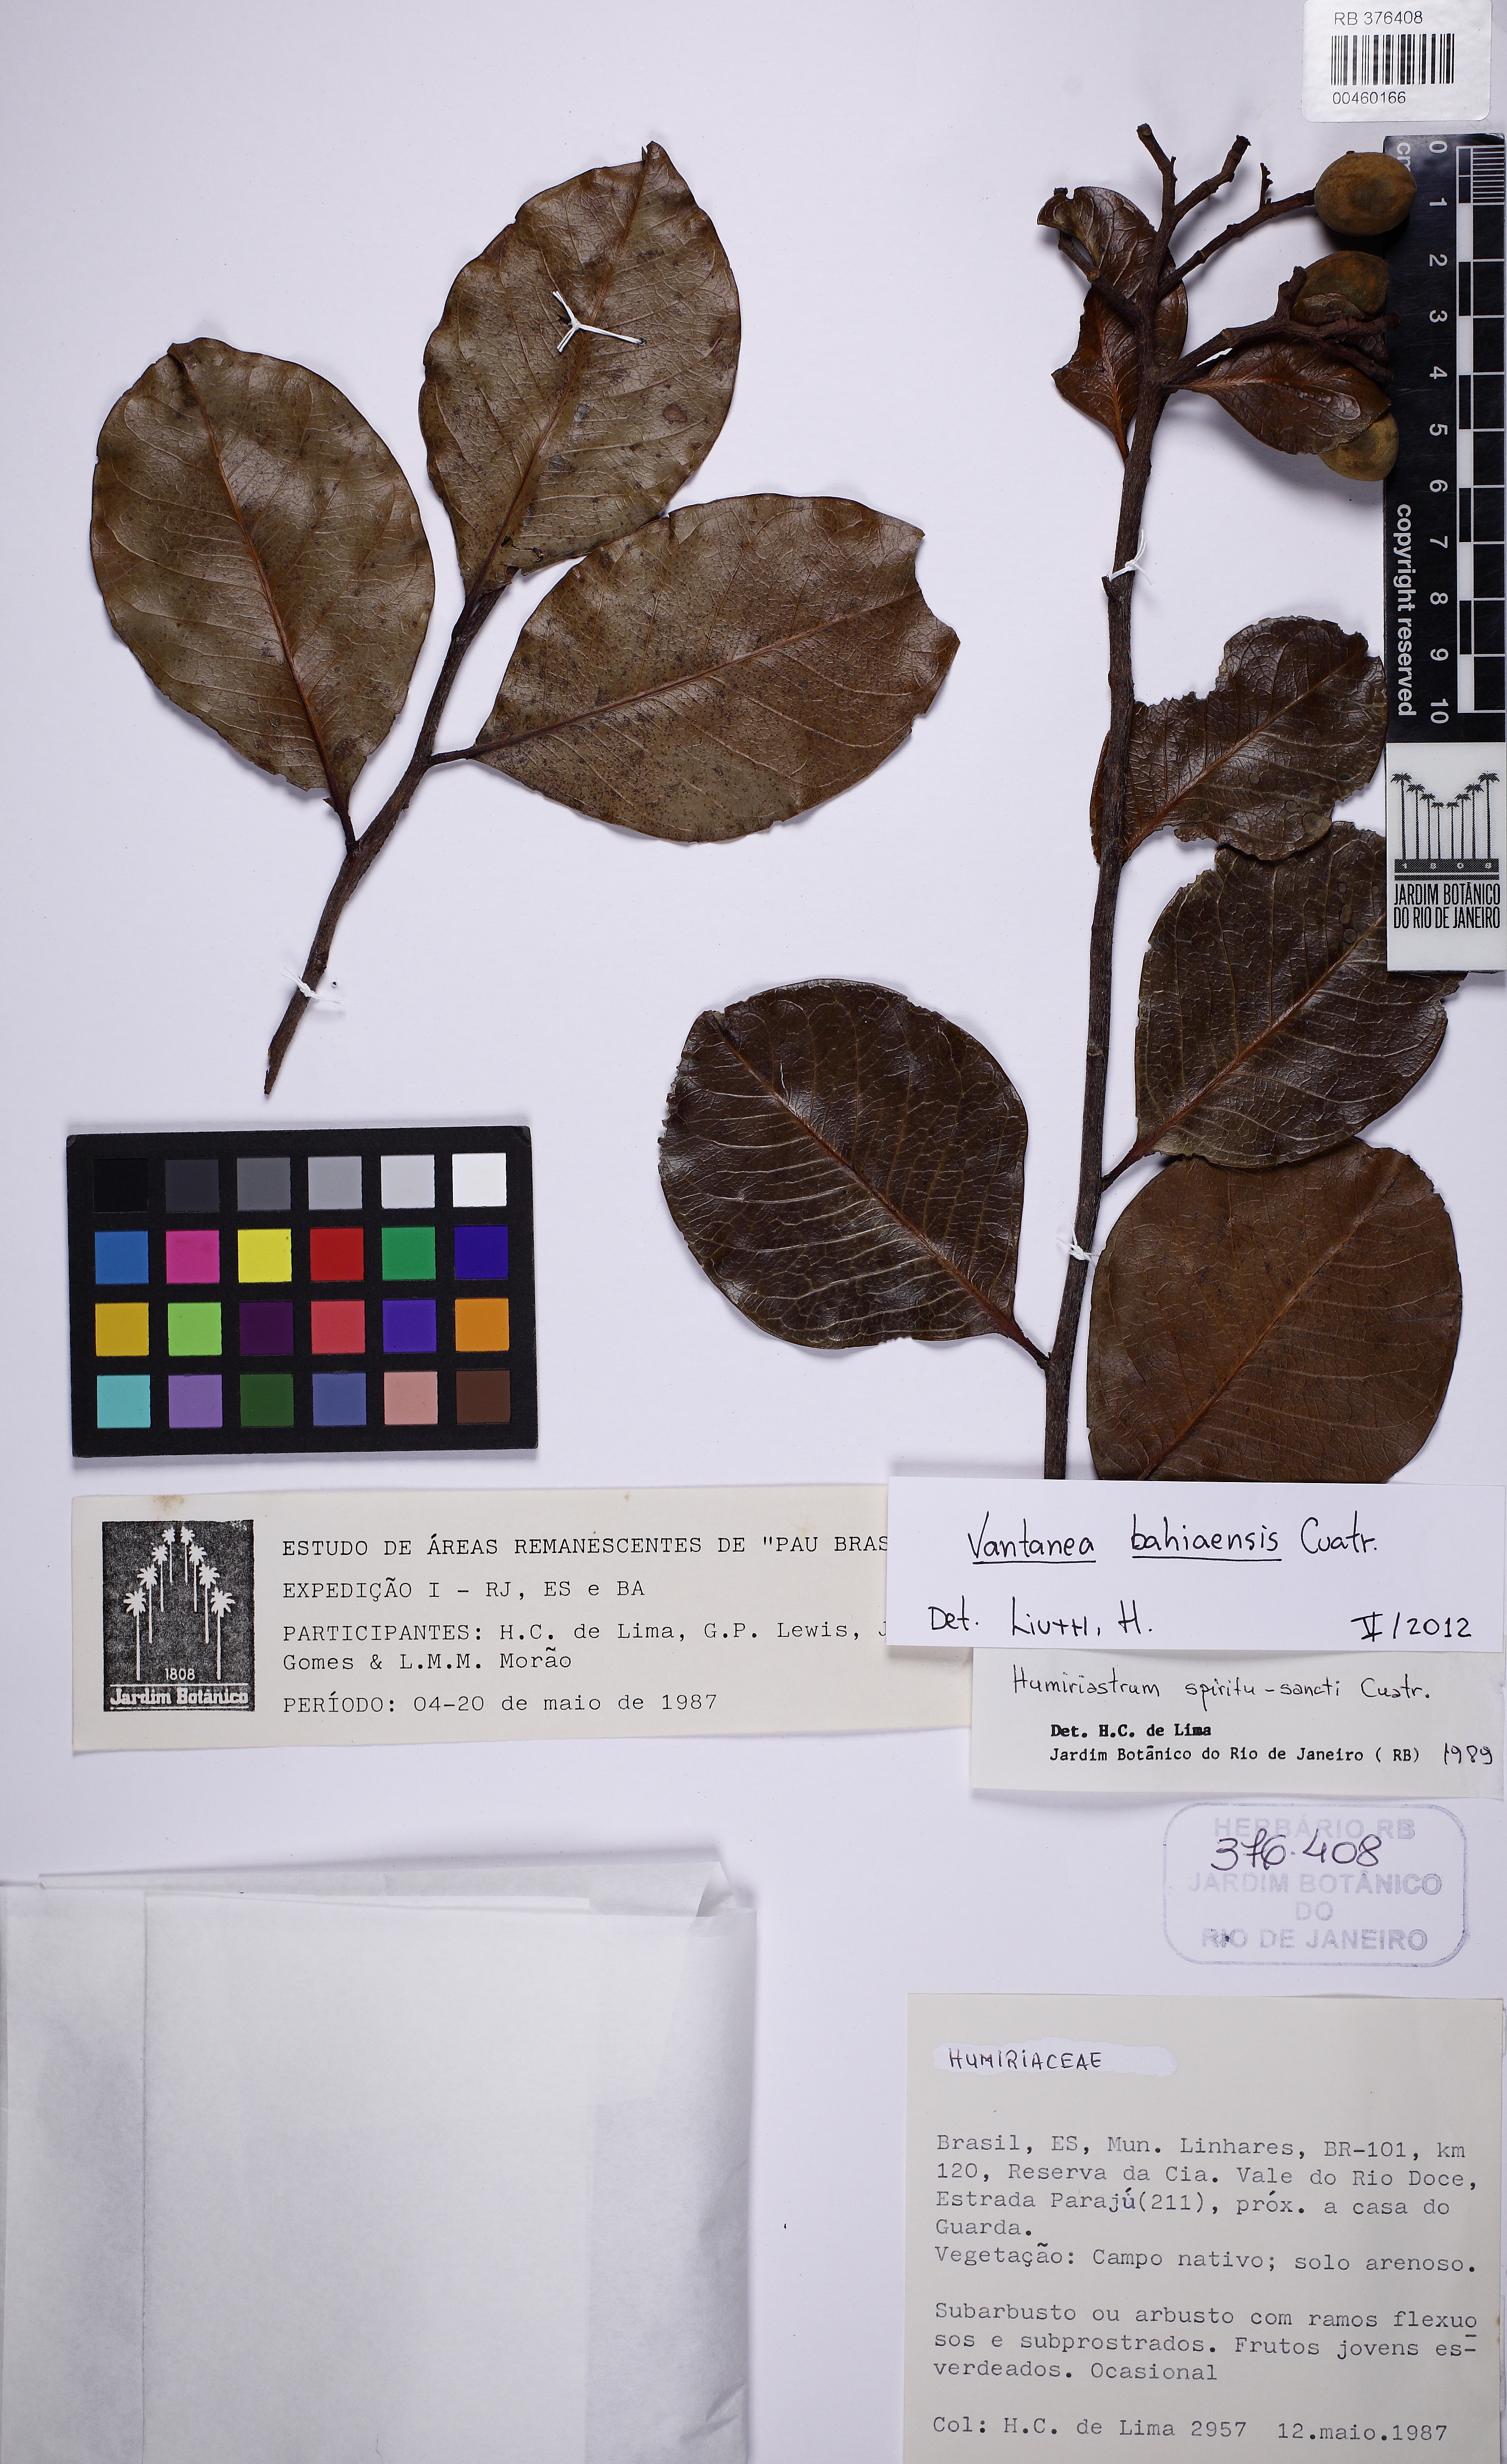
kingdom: Plantae
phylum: Tracheophyta
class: Magnoliopsida
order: Malpighiales
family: Humiriaceae
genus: Vantanea
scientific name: Vantanea bahiaensis
